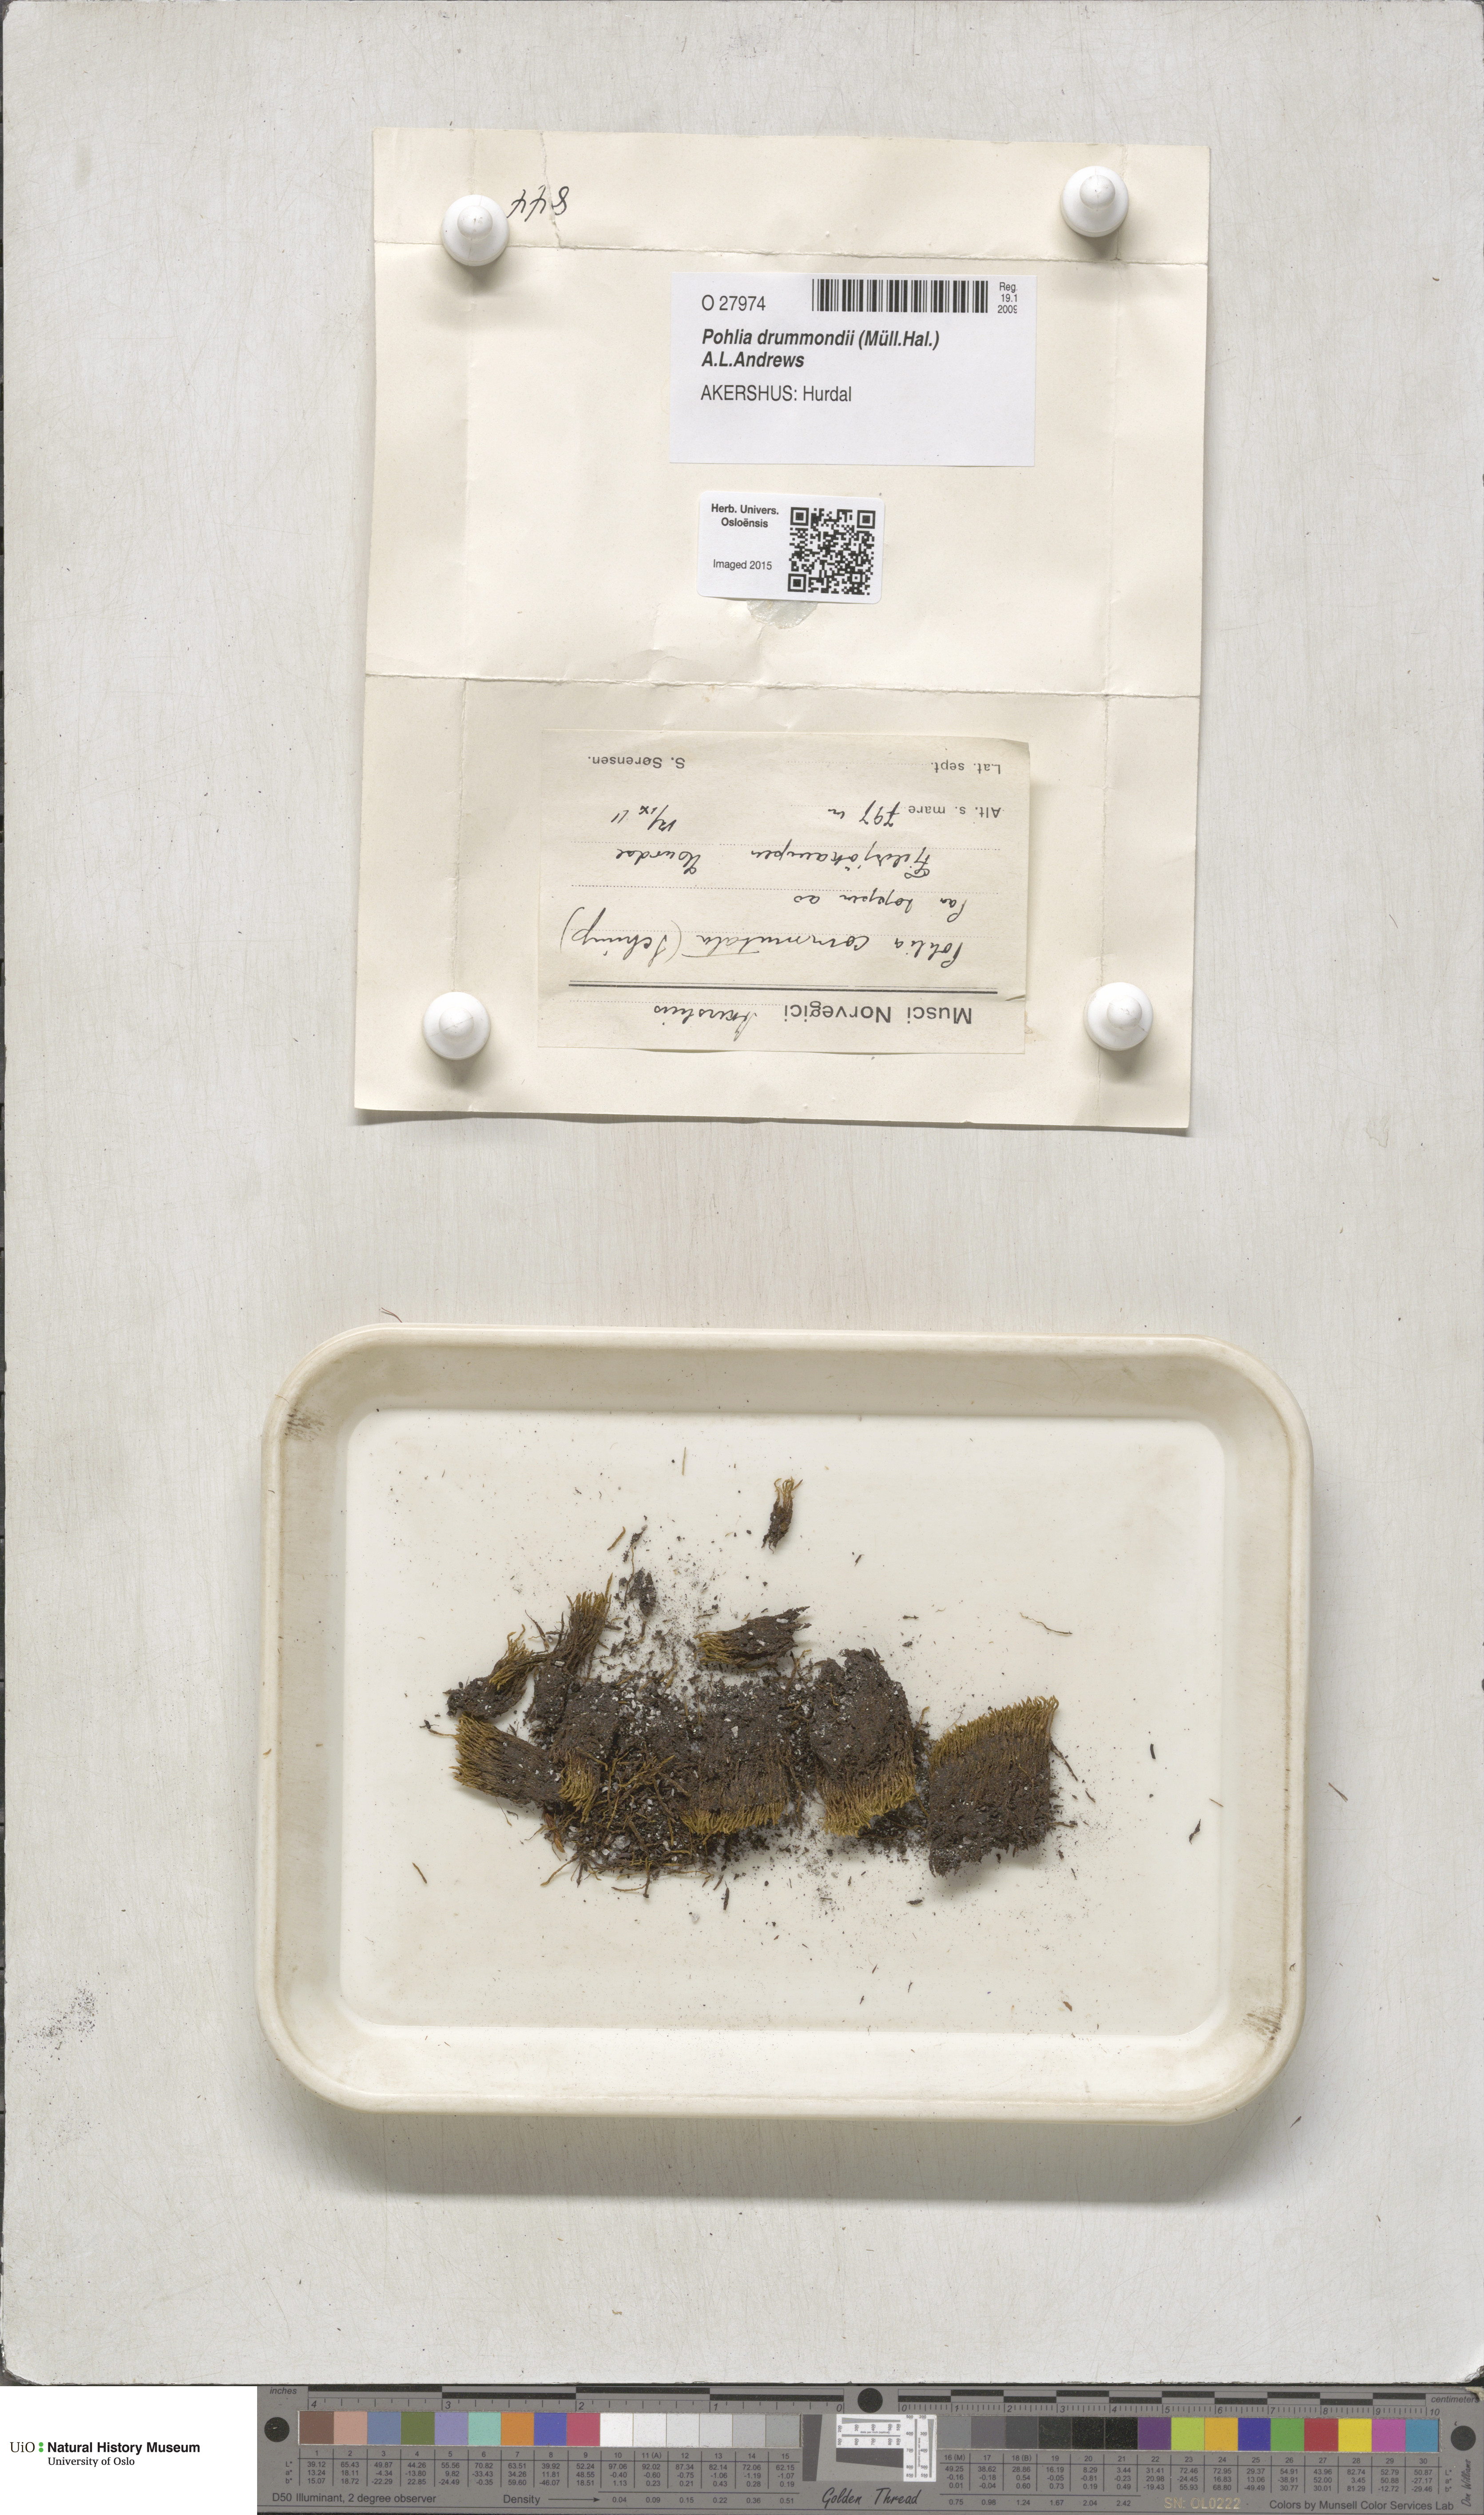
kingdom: Plantae
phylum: Bryophyta
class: Bryopsida
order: Bryales
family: Mniaceae
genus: Pohlia
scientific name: Pohlia drummondii
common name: Drummond's nodding moss
